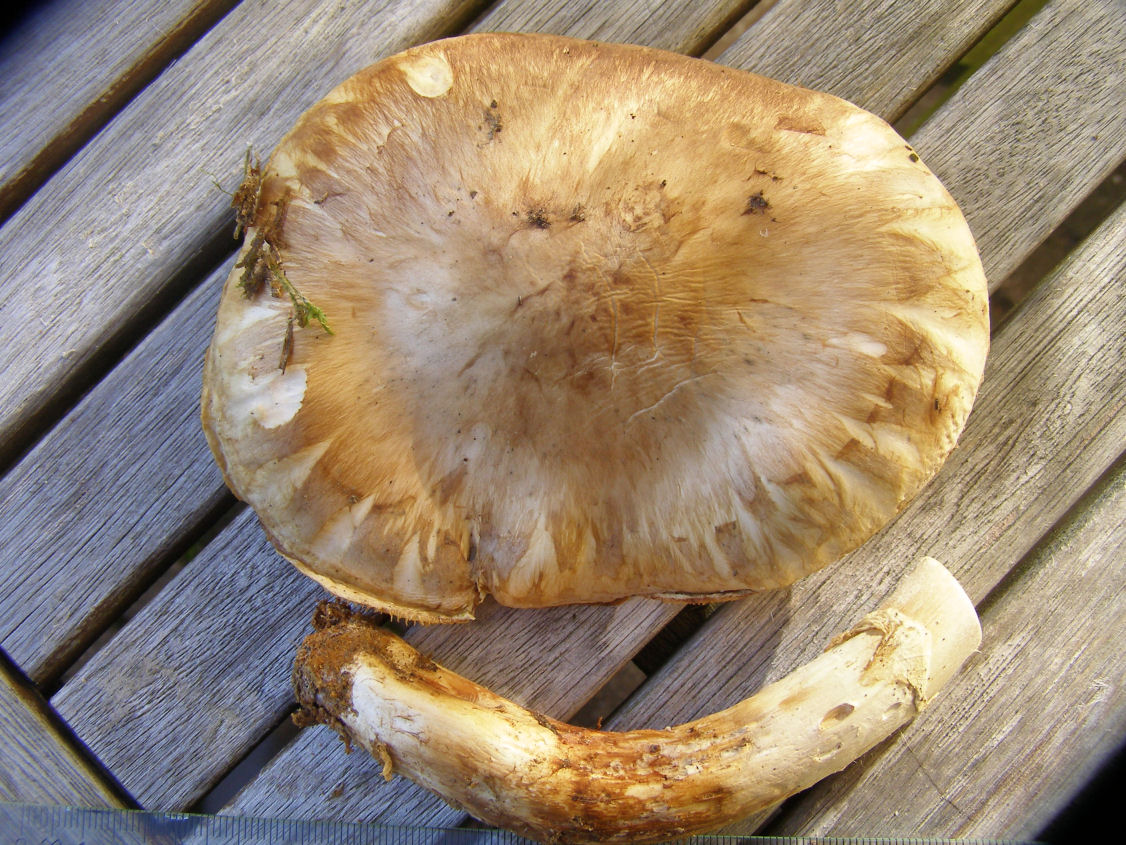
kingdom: Fungi
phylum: Basidiomycota
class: Agaricomycetes
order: Agaricales
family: Tricholomataceae
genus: Tricholoma
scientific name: Tricholoma matsutake
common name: duft-ridderhat
